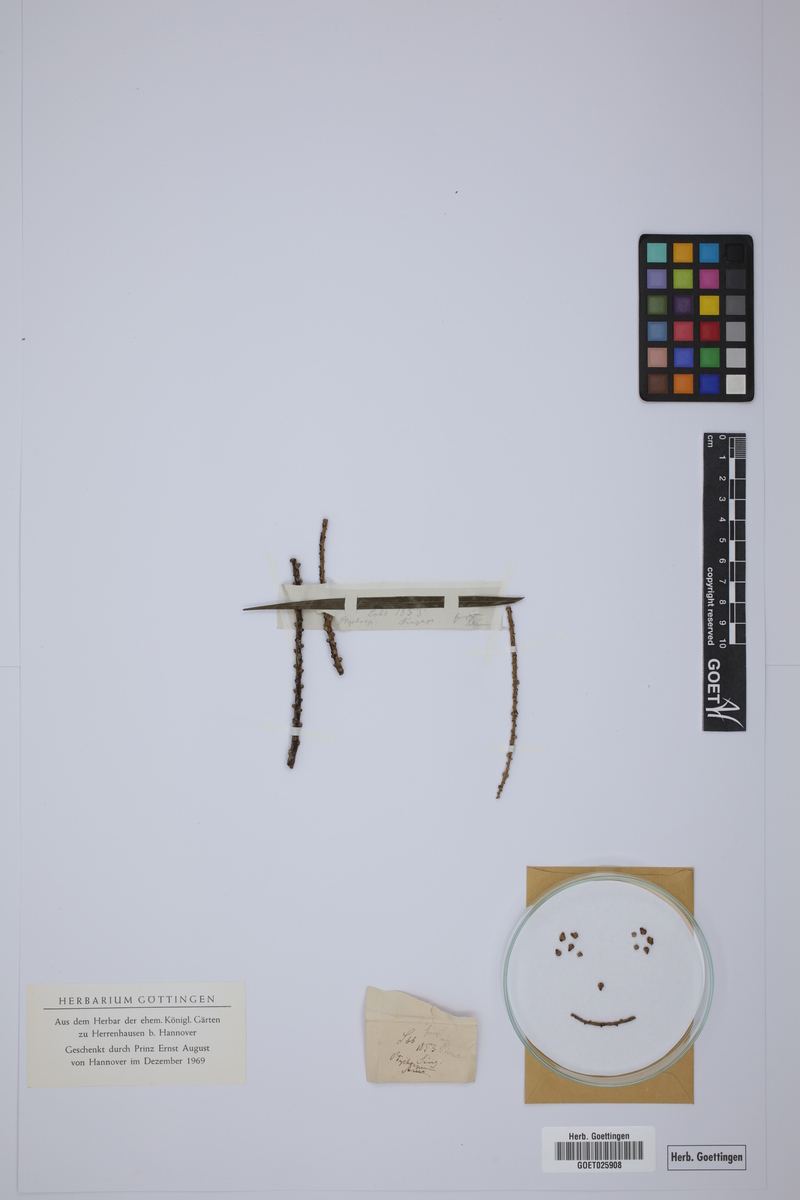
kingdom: Plantae
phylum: Tracheophyta
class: Liliopsida
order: Arecales
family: Arecaceae
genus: Ptychosperma
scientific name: Ptychosperma
